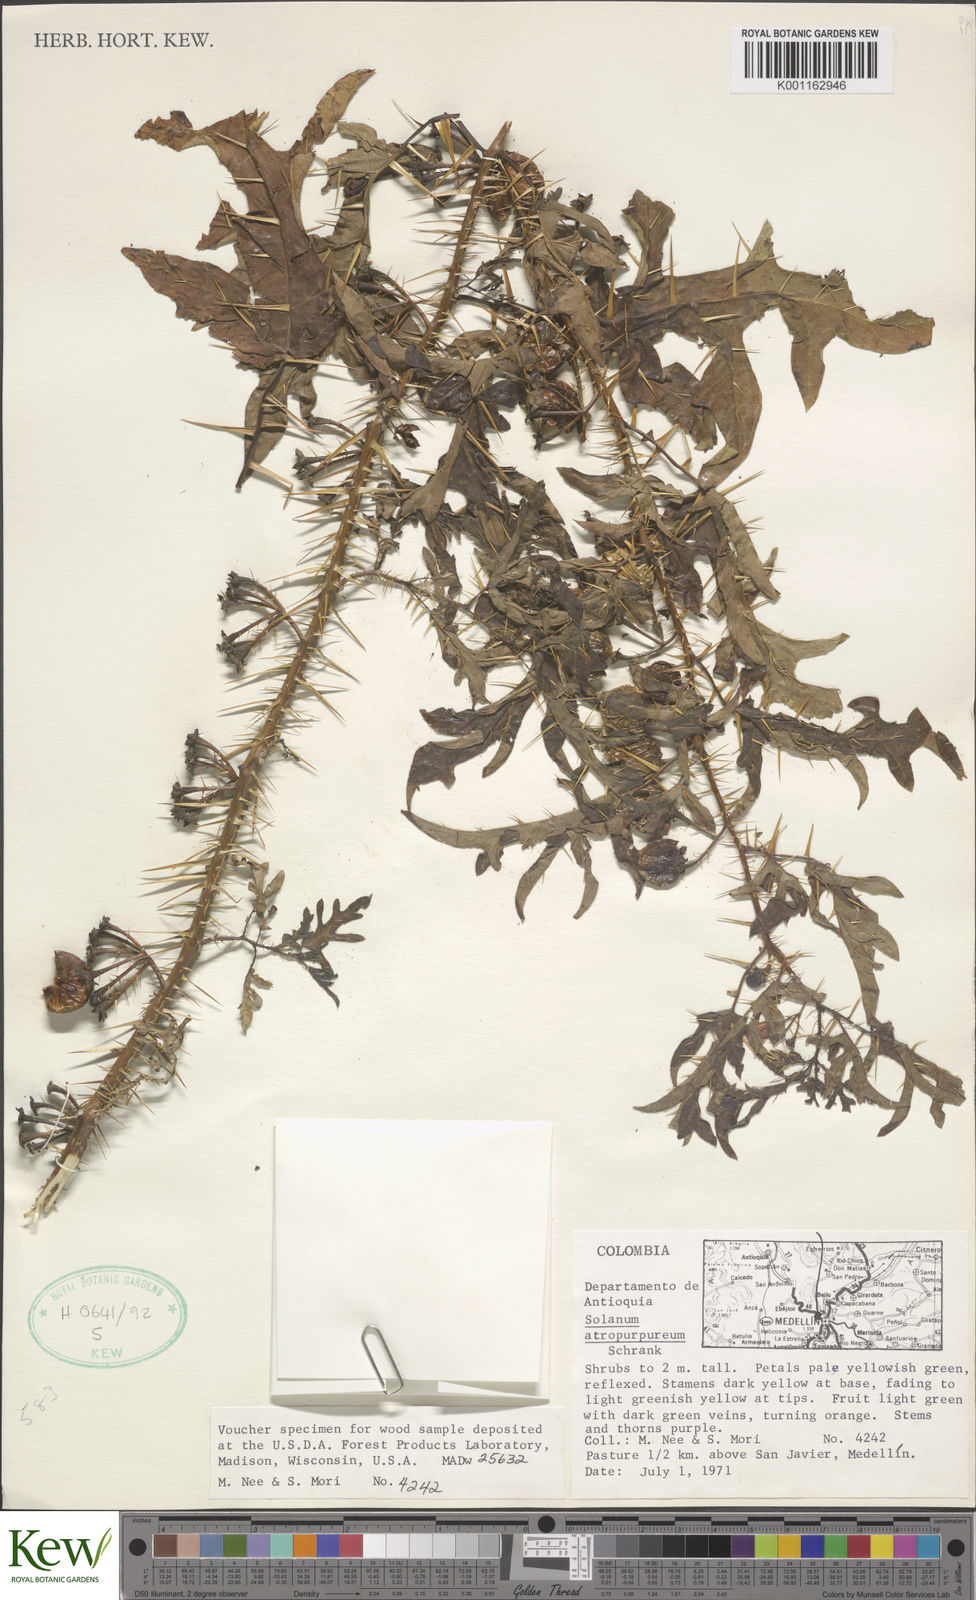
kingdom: Plantae
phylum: Tracheophyta
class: Magnoliopsida
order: Solanales
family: Solanaceae
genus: Solanum
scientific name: Solanum atropurpureum
